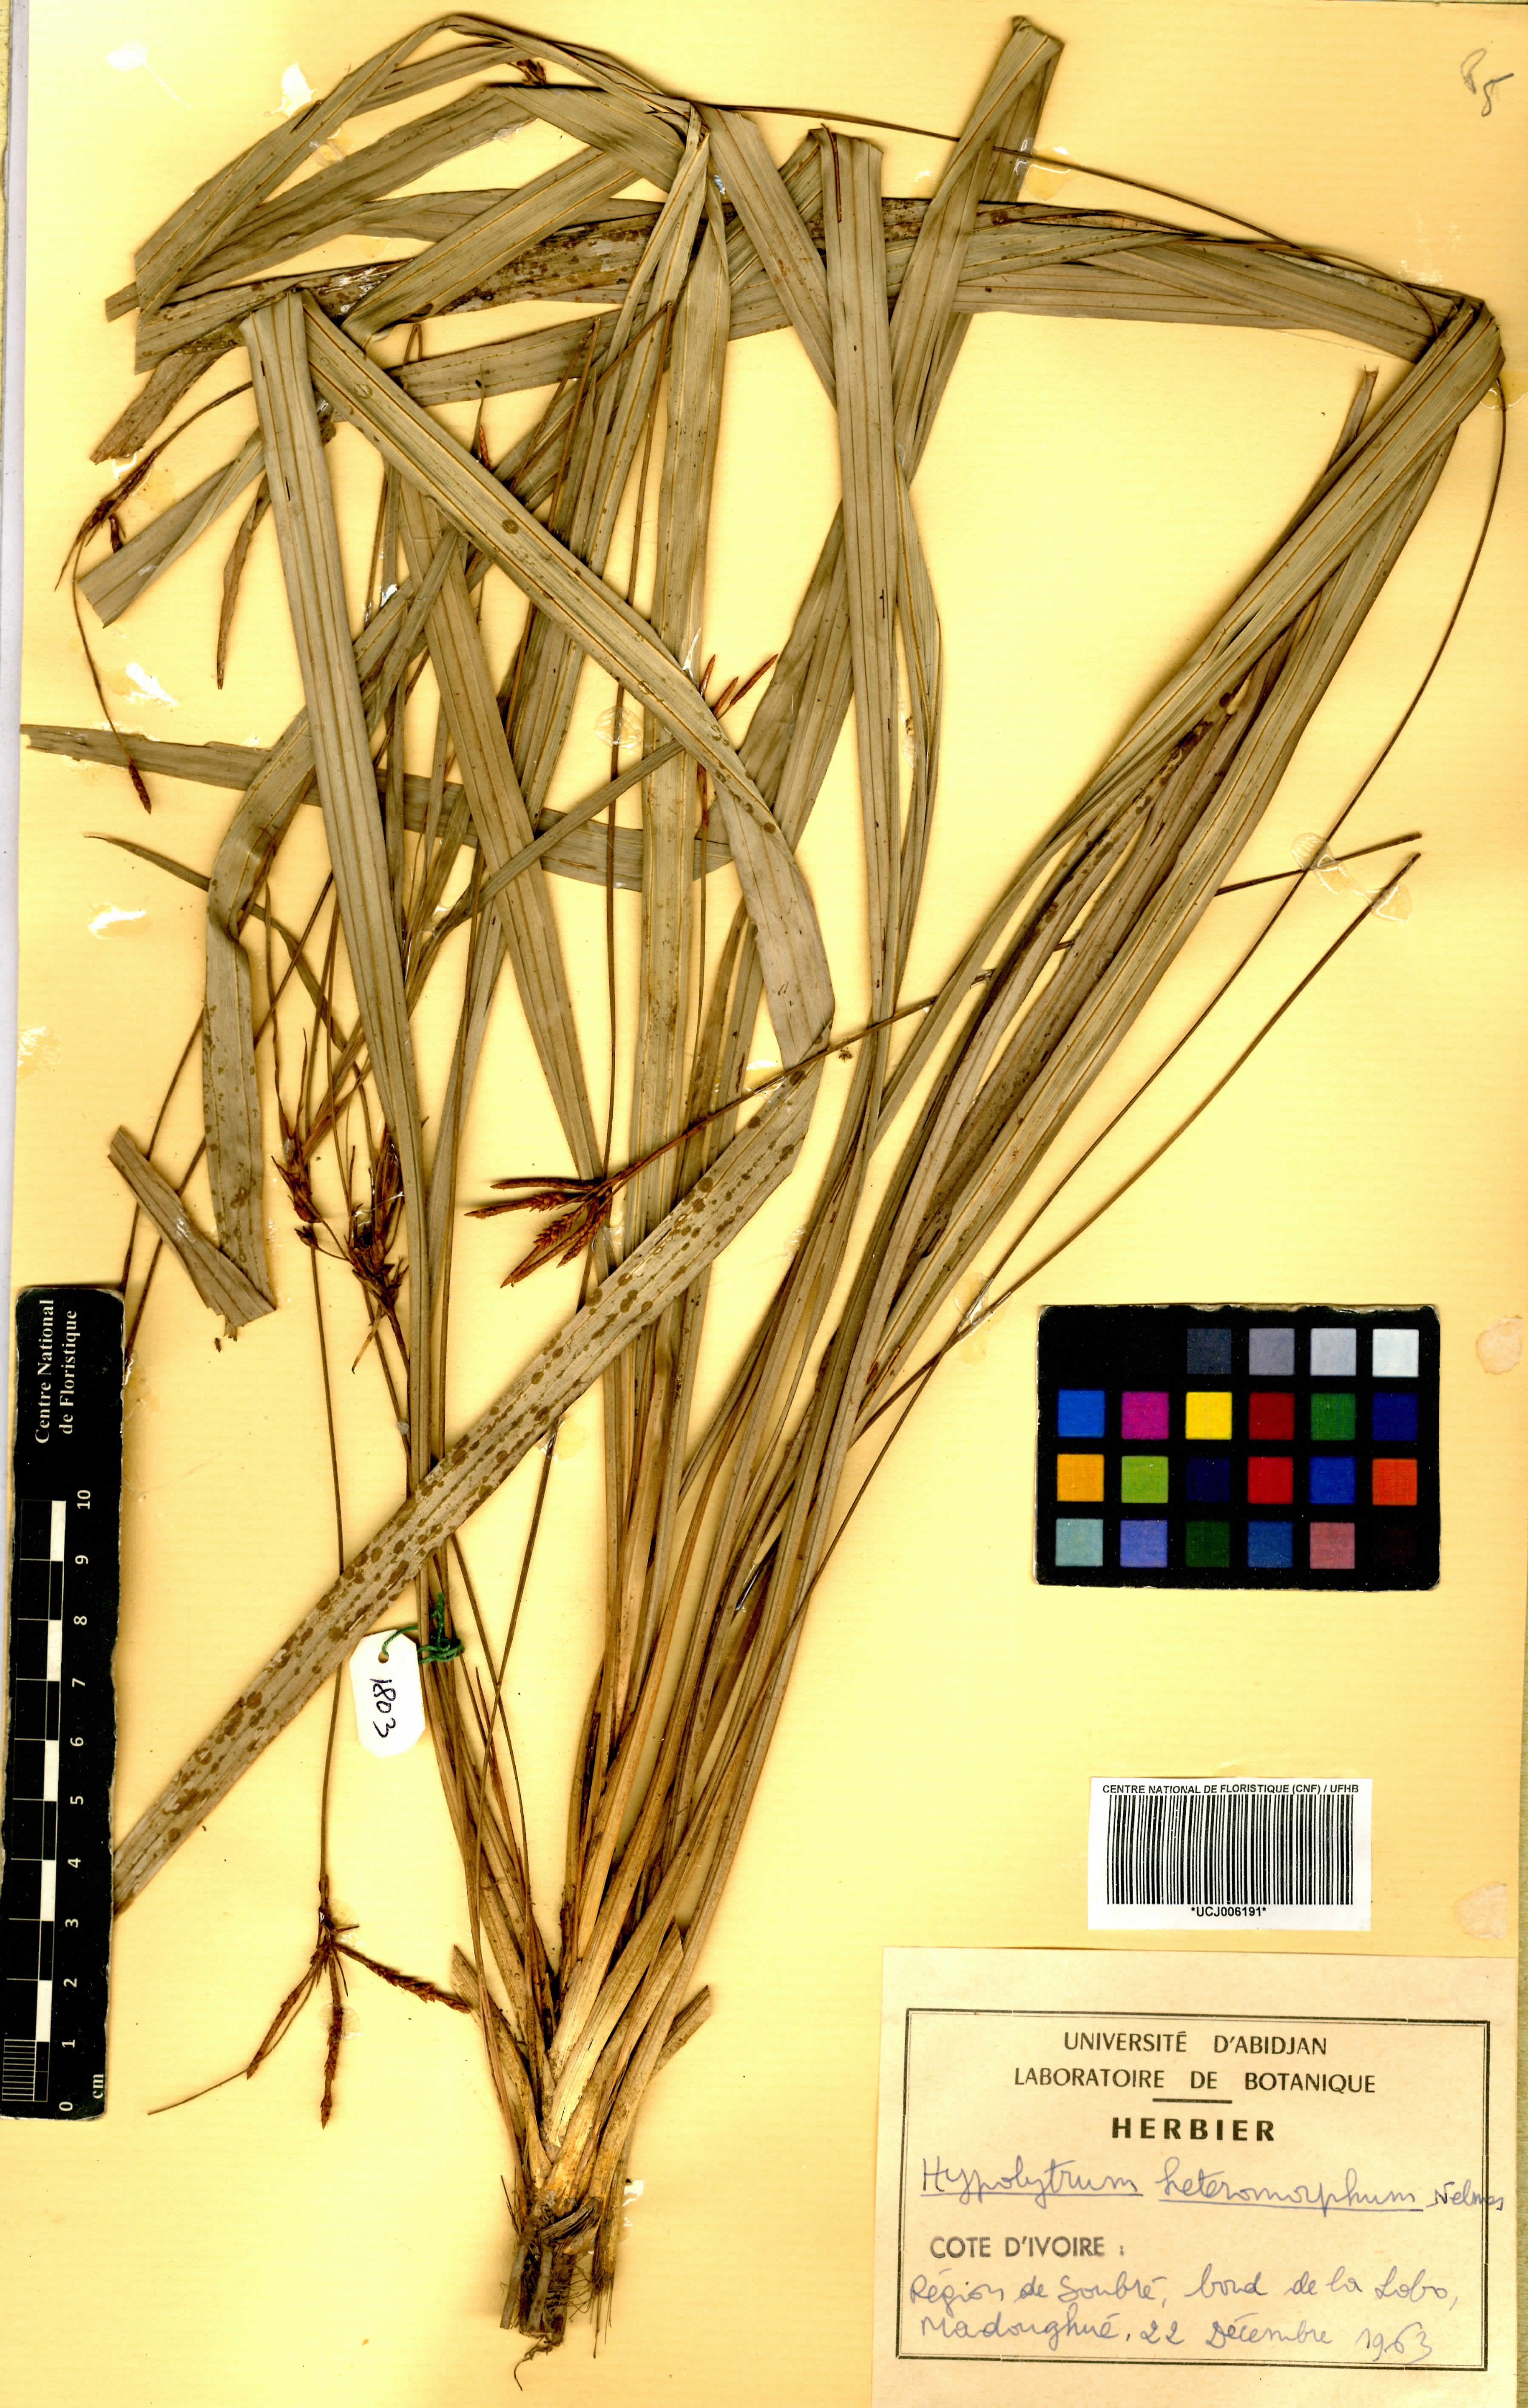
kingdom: Plantae
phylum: Tracheophyta
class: Liliopsida
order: Poales
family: Cyperaceae
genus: Hypolytrum
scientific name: Hypolytrum heteromorphum
